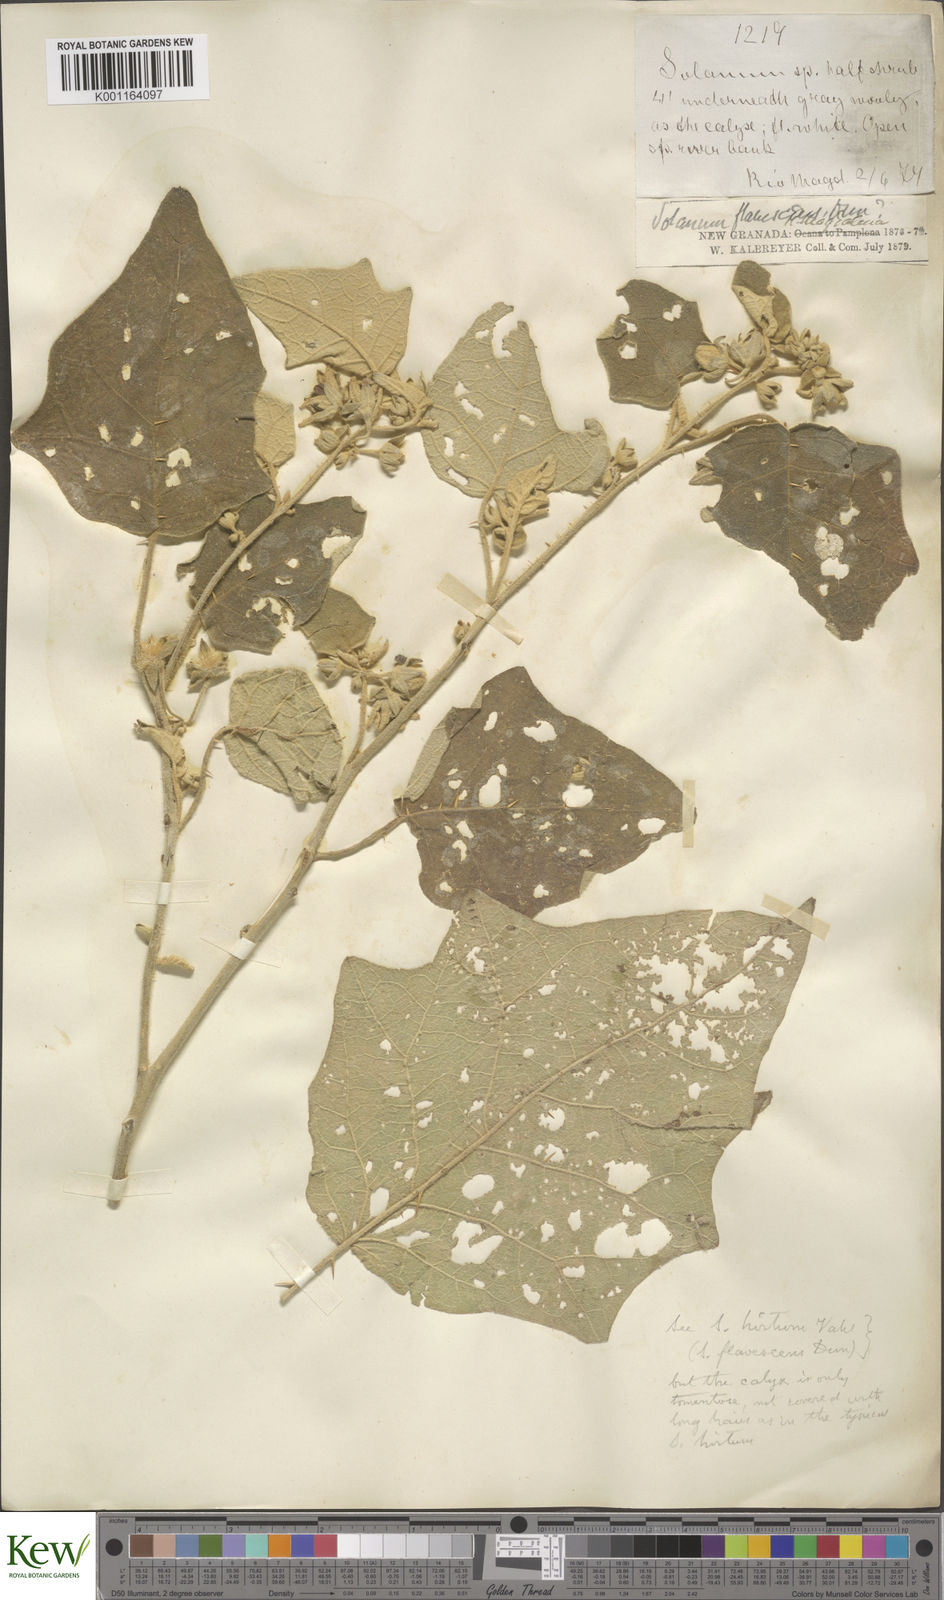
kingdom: Plantae
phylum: Tracheophyta
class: Magnoliopsida
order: Solanales
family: Solanaceae
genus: Solanum
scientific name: Solanum hirtum
